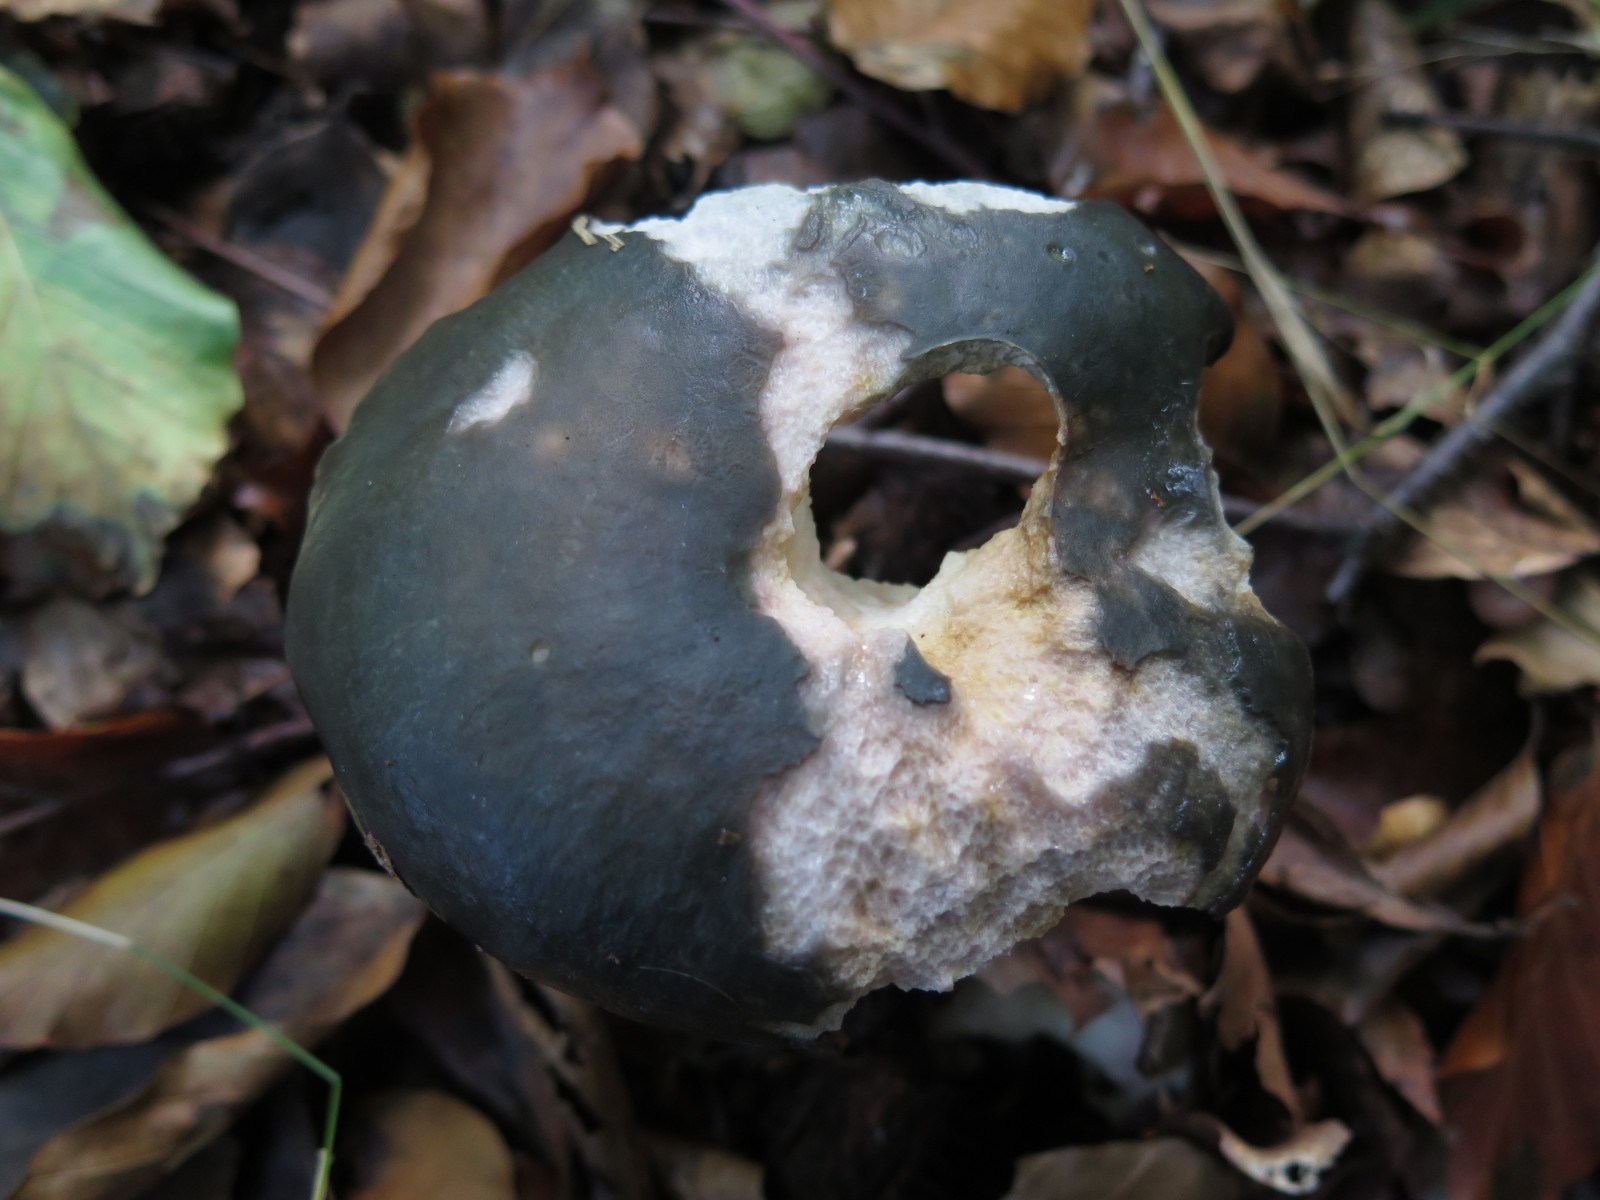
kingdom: Fungi
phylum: Basidiomycota
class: Agaricomycetes
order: Russulales
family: Russulaceae
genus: Russula
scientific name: Russula
